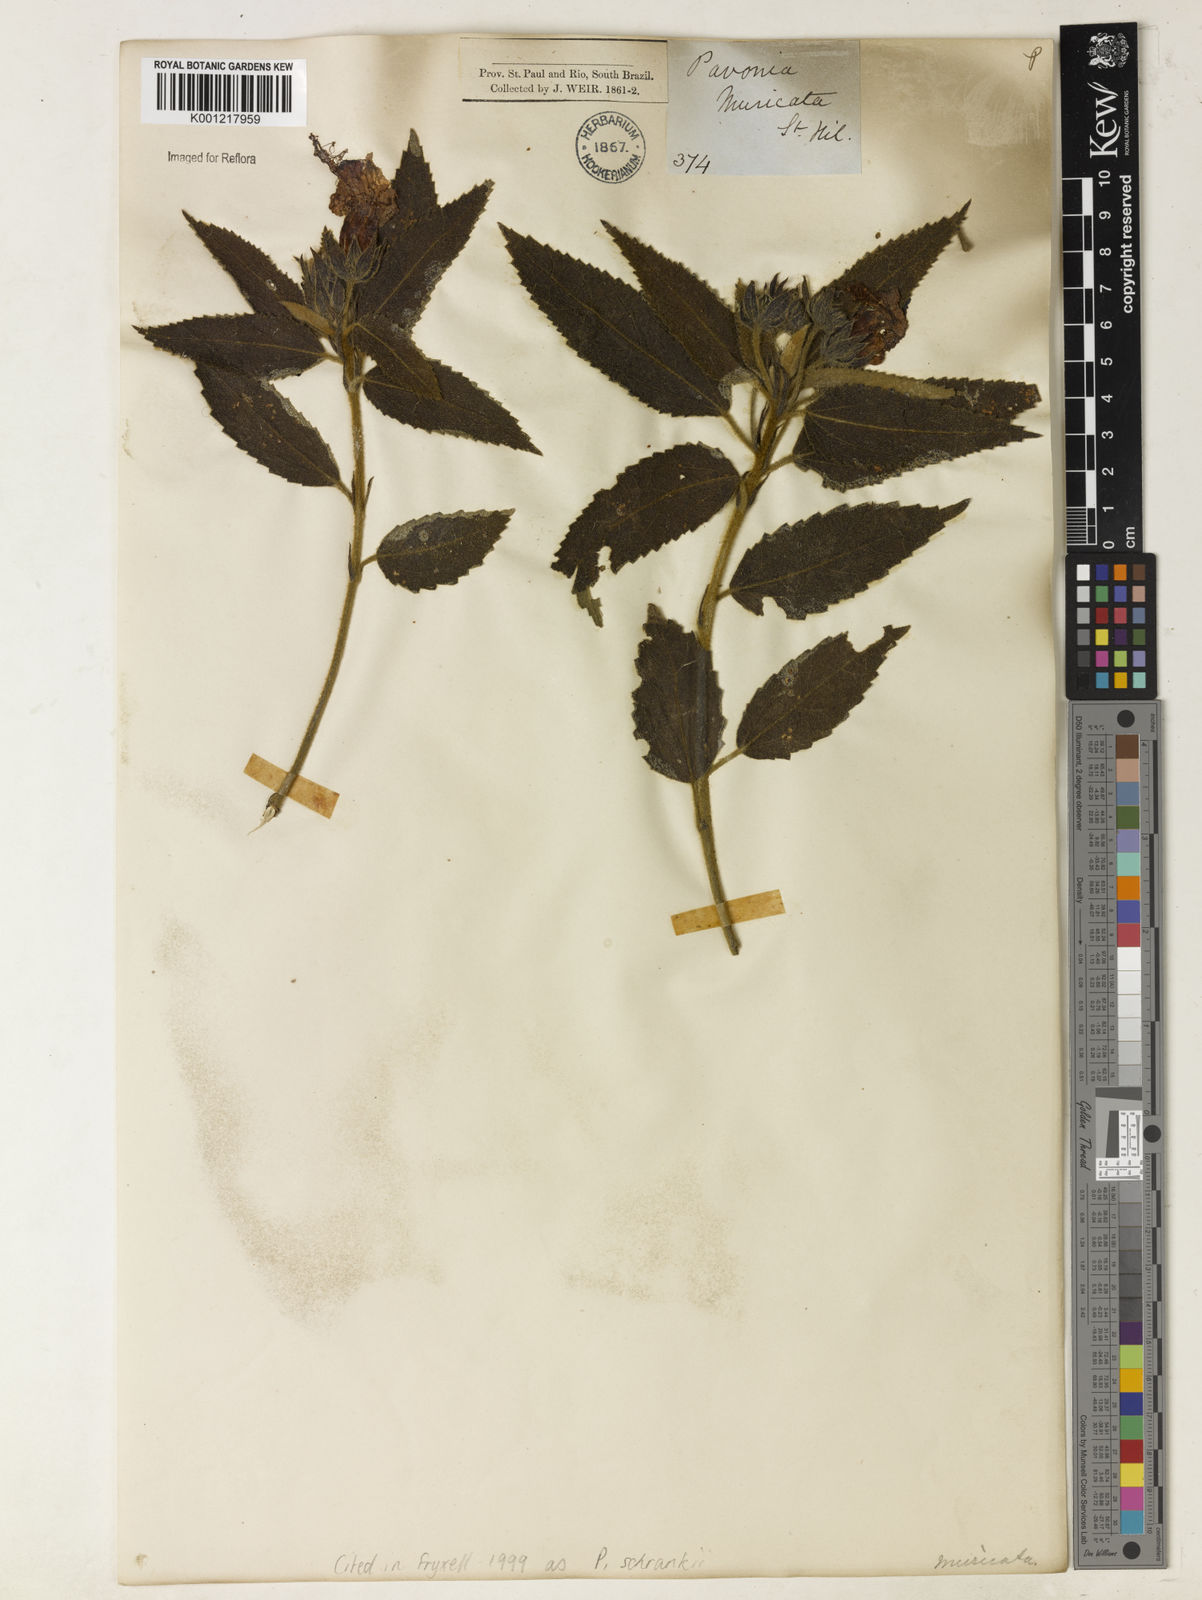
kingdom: Plantae
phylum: Tracheophyta
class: Magnoliopsida
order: Malvales
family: Malvaceae
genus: Pavonia
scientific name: Pavonia schrankii
